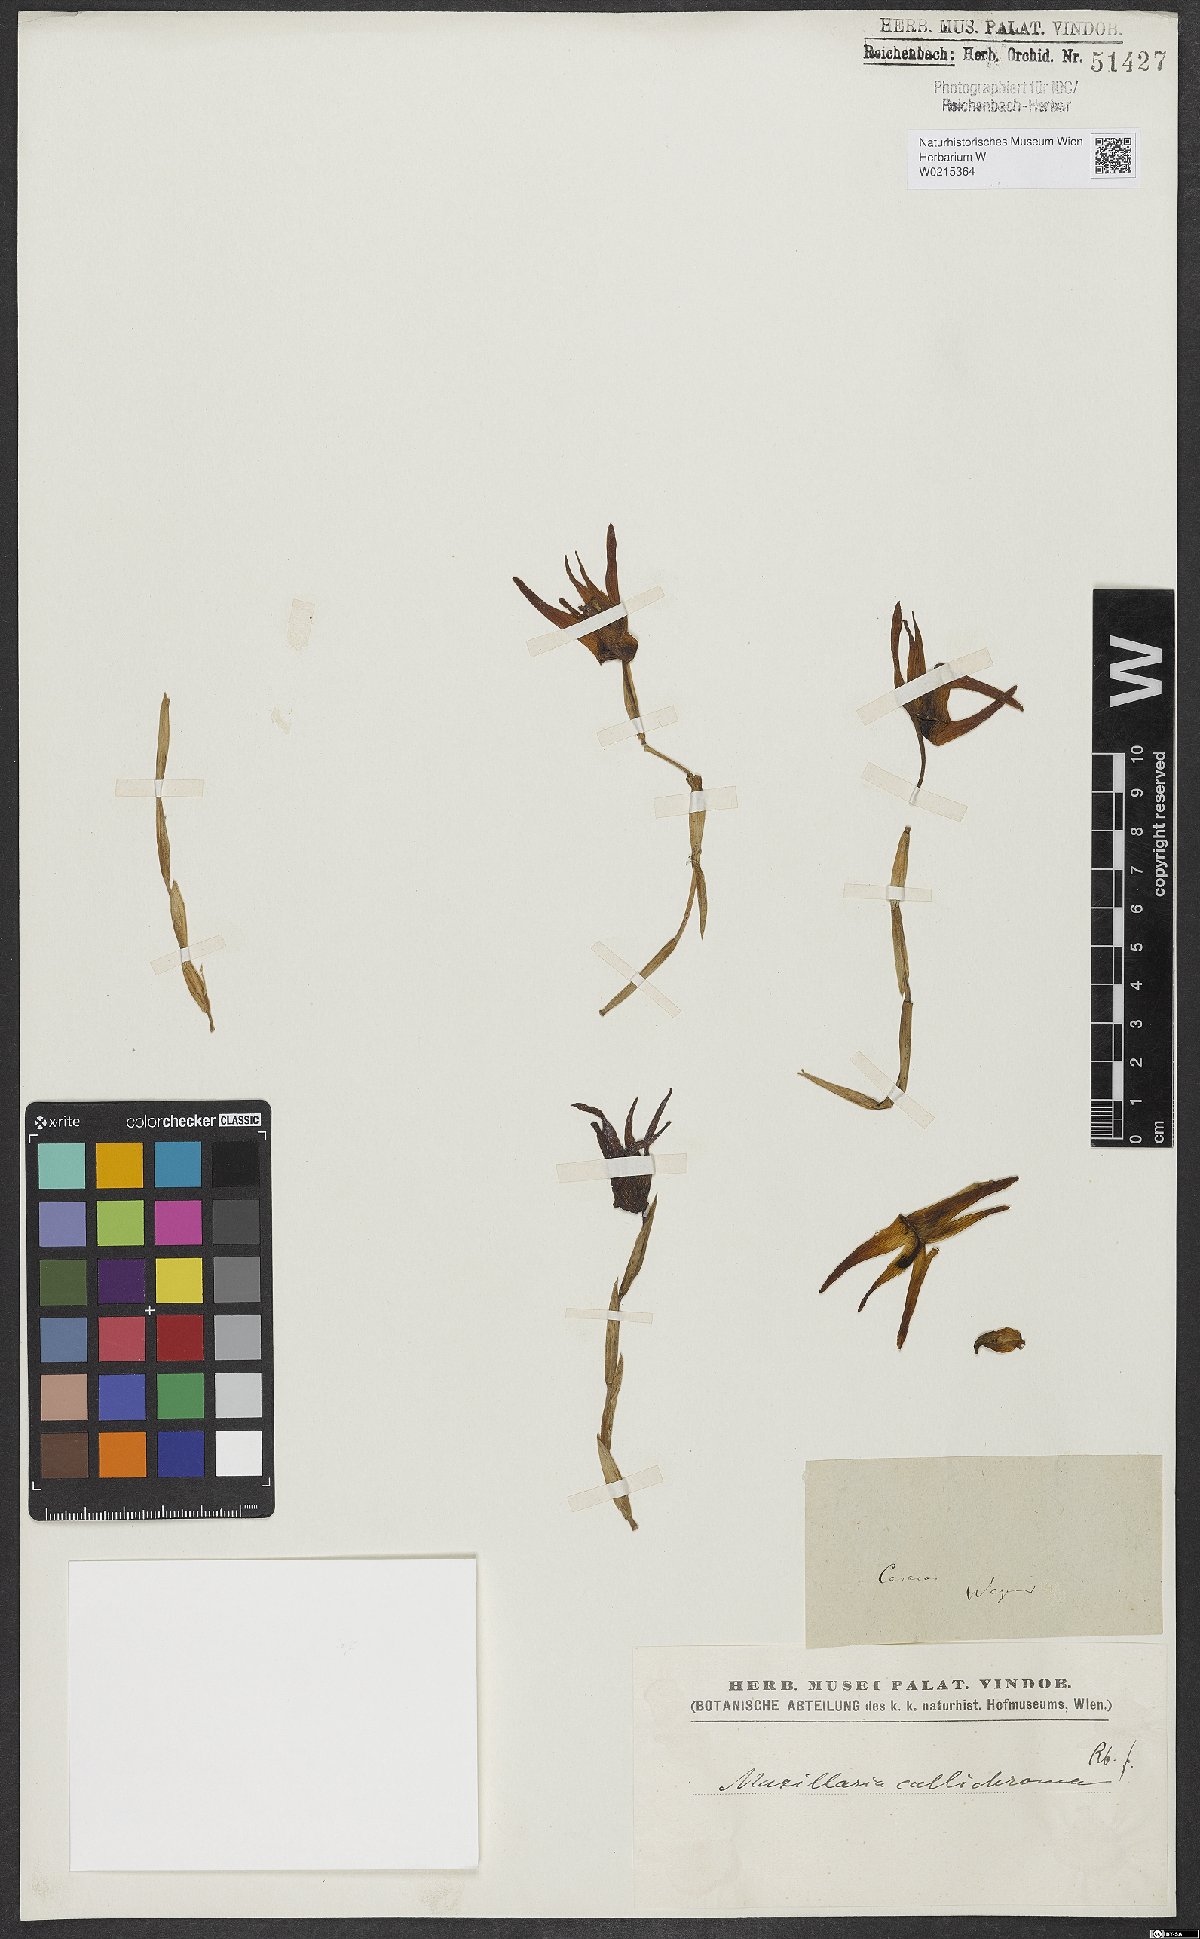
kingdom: Plantae
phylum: Tracheophyta
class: Liliopsida
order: Asparagales
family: Orchidaceae
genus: Maxillaria
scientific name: Maxillaria callichroma
